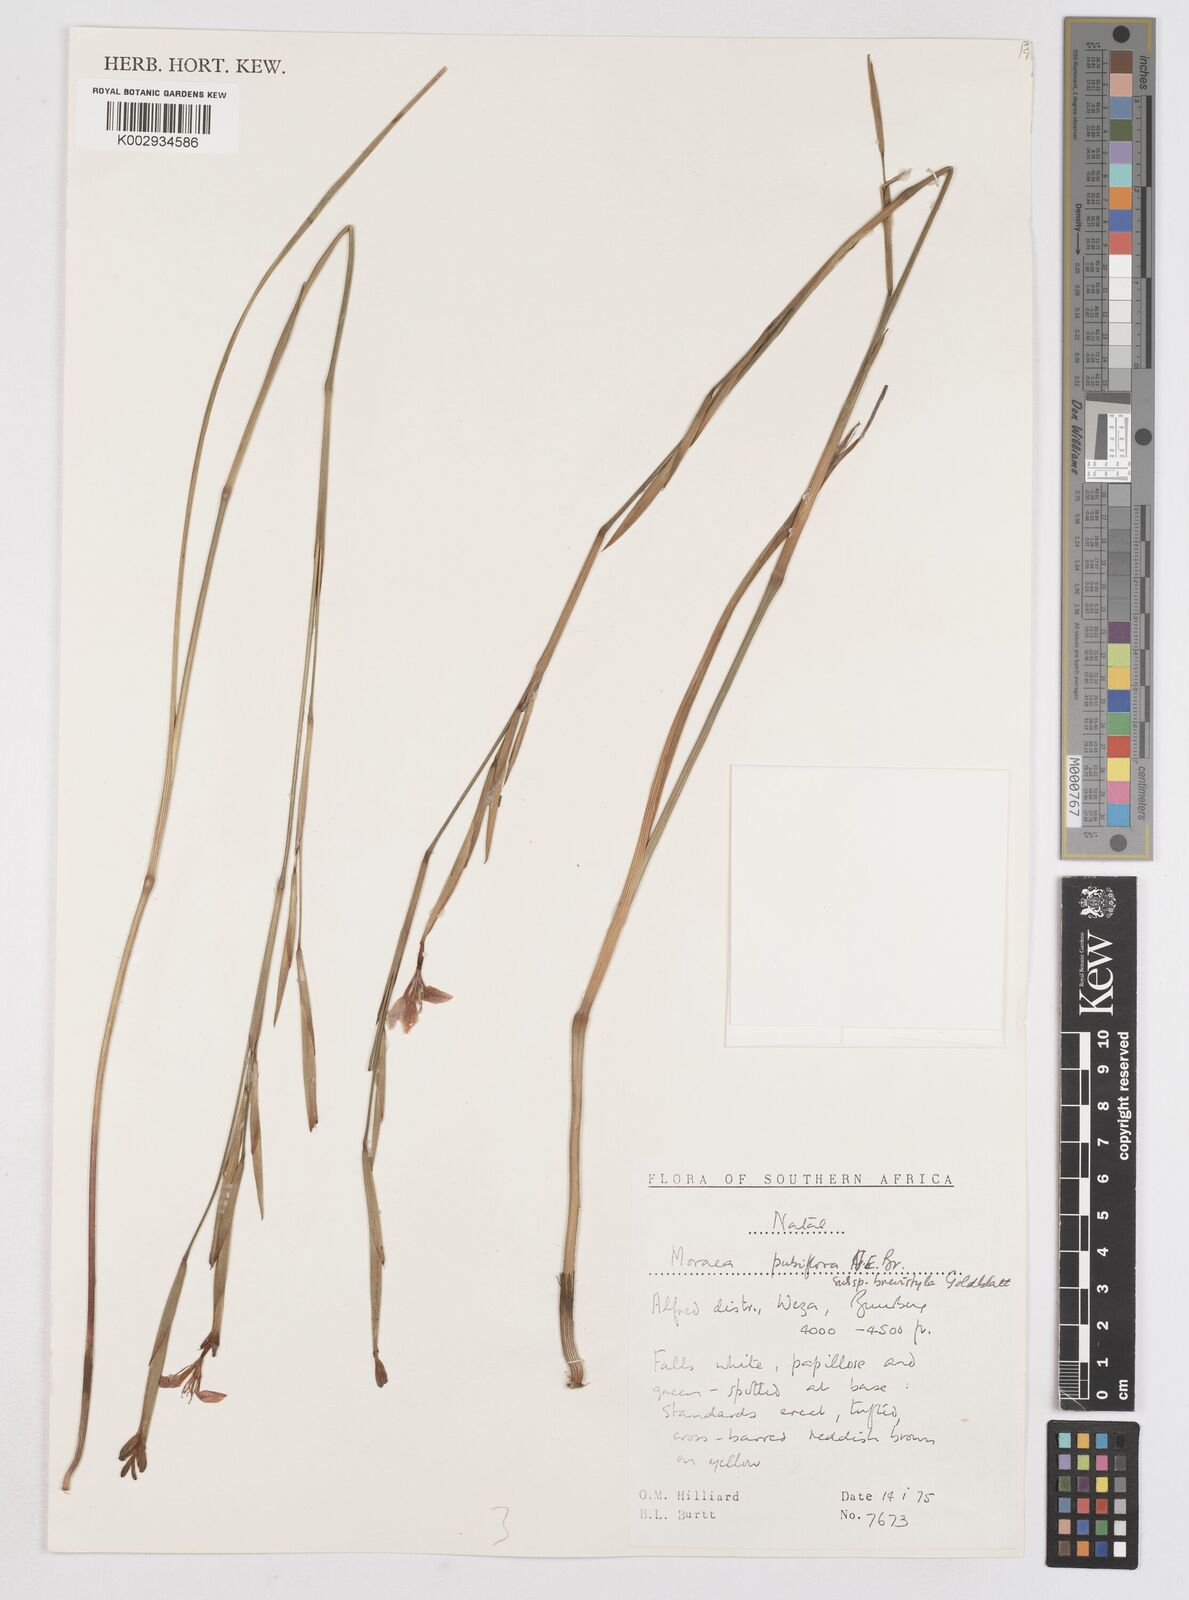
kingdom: Plantae
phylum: Tracheophyta
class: Liliopsida
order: Asparagales
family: Iridaceae
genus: Moraea
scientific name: Moraea brevistyla
